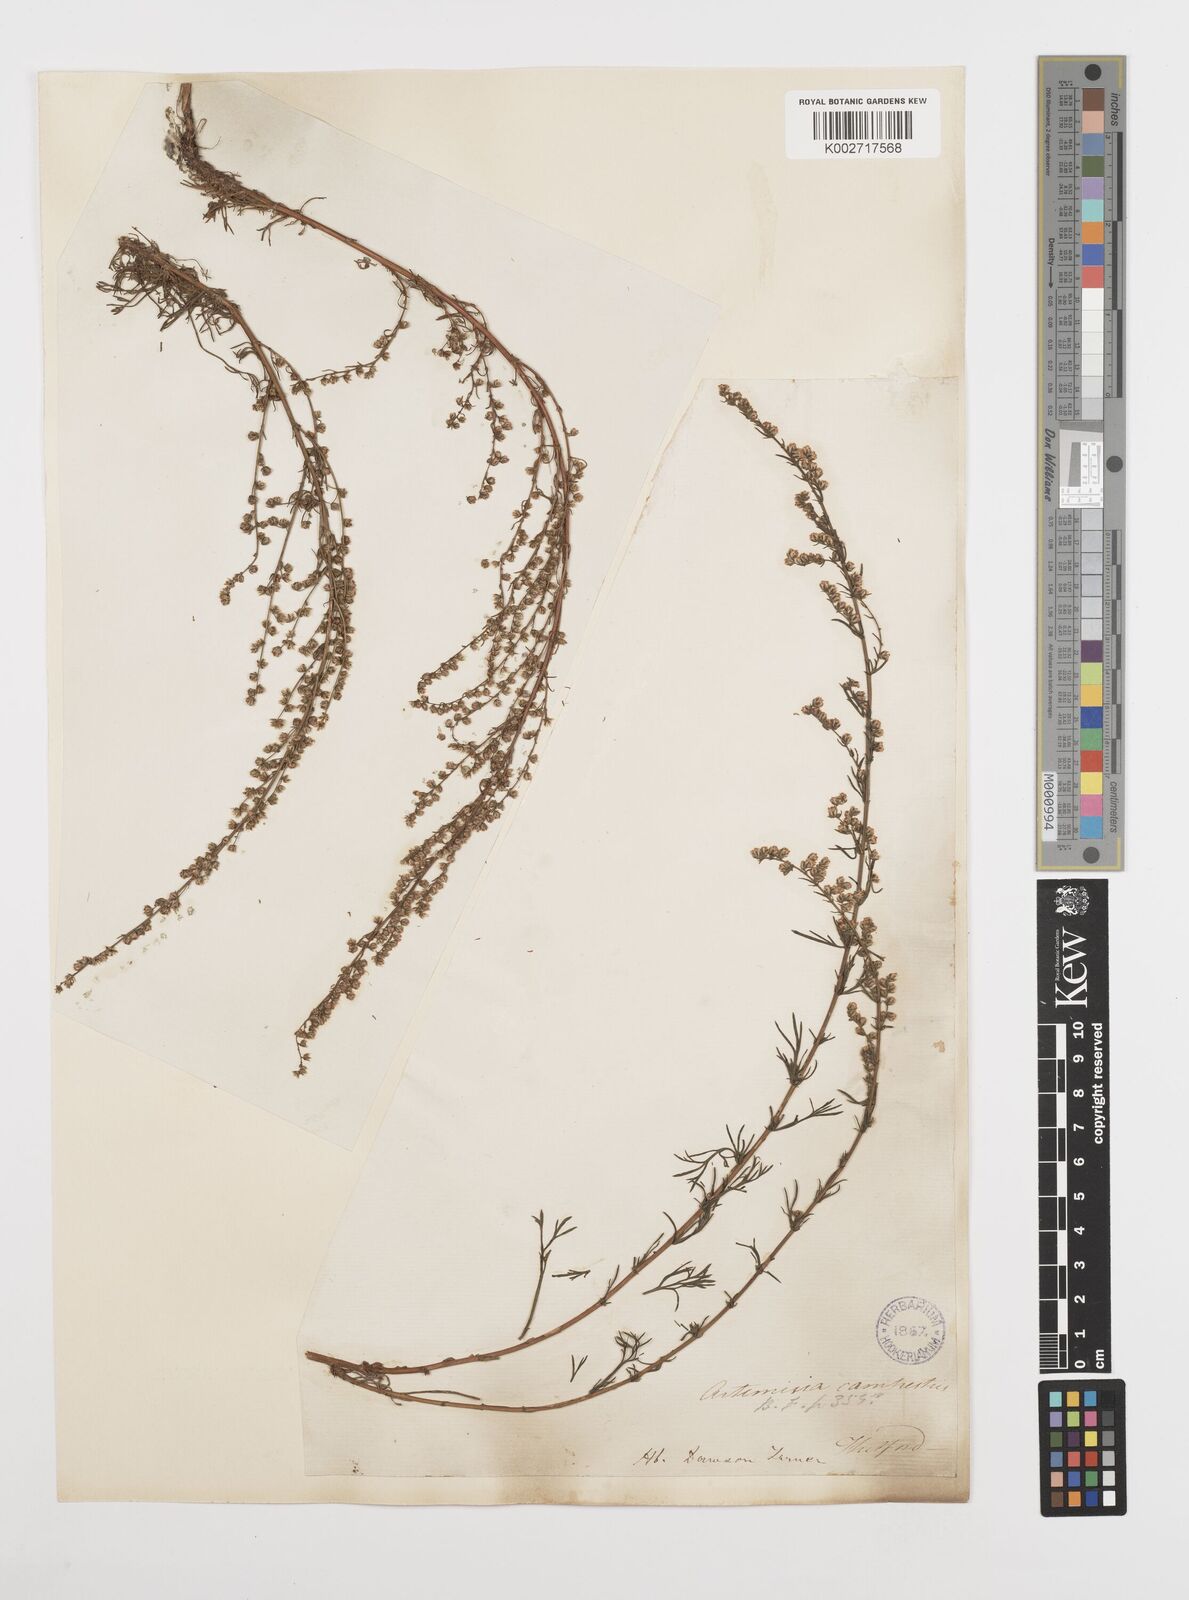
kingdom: Plantae
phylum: Tracheophyta
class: Magnoliopsida
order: Asterales
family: Asteraceae
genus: Artemisia
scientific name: Artemisia campestris
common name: Field wormwood
